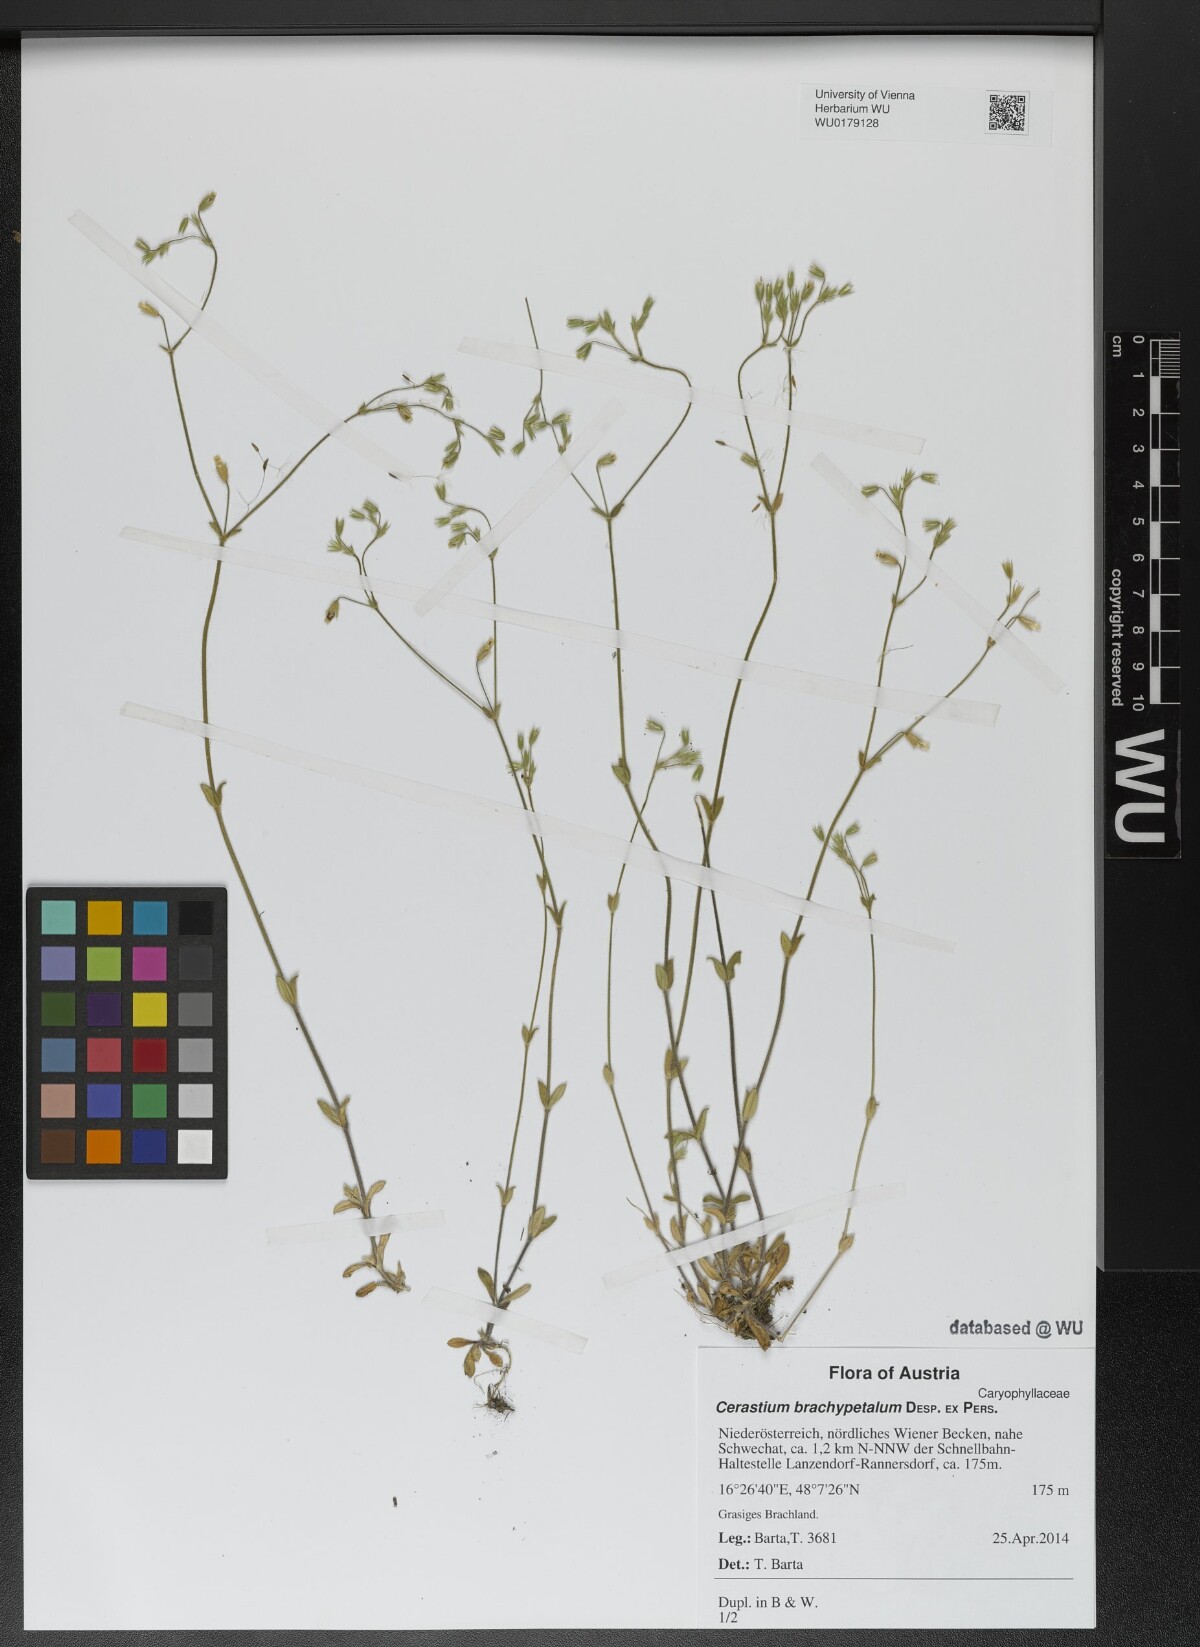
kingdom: Plantae
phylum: Tracheophyta
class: Magnoliopsida
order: Caryophyllales
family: Caryophyllaceae
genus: Cerastium
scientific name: Cerastium brachypetalum
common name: Grey mouse-ear
